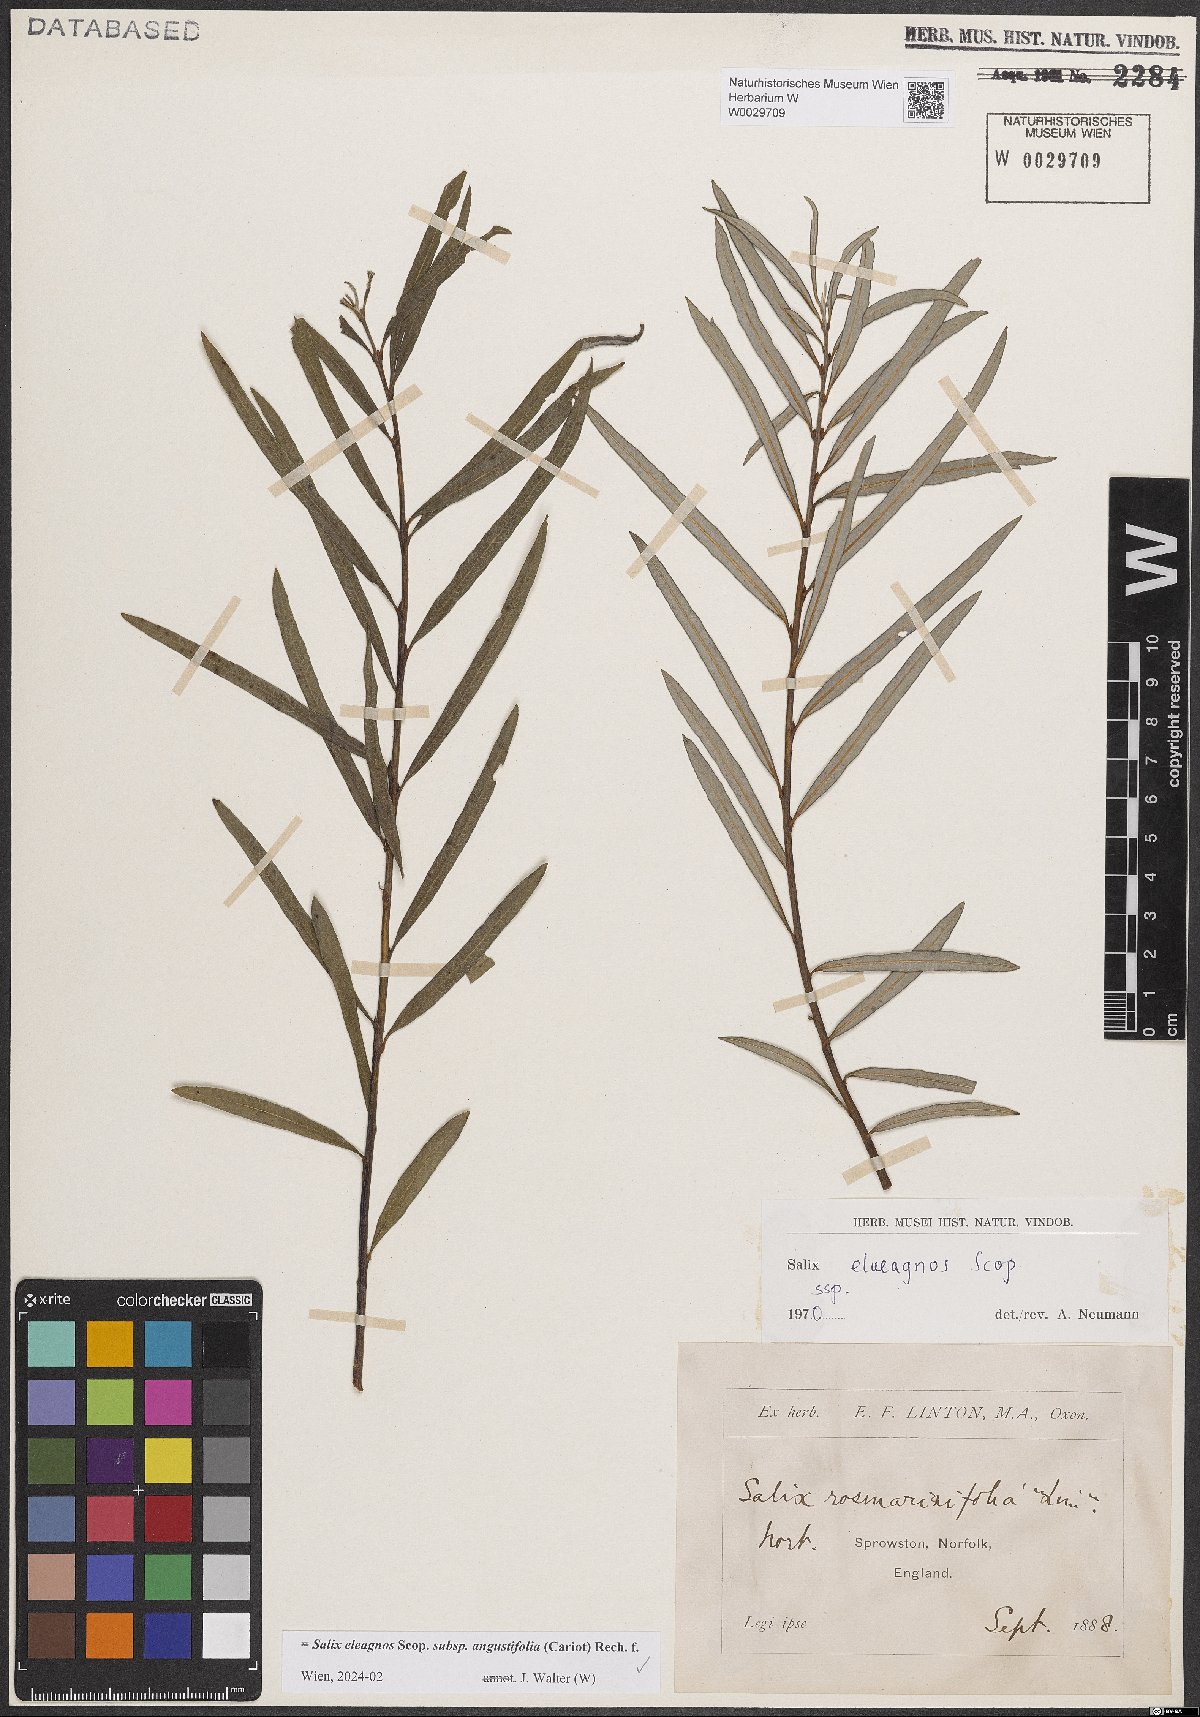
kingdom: Plantae
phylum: Tracheophyta
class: Magnoliopsida
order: Malpighiales
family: Salicaceae
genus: Salix
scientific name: Salix eleagnos
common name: Elaeagnus willow
